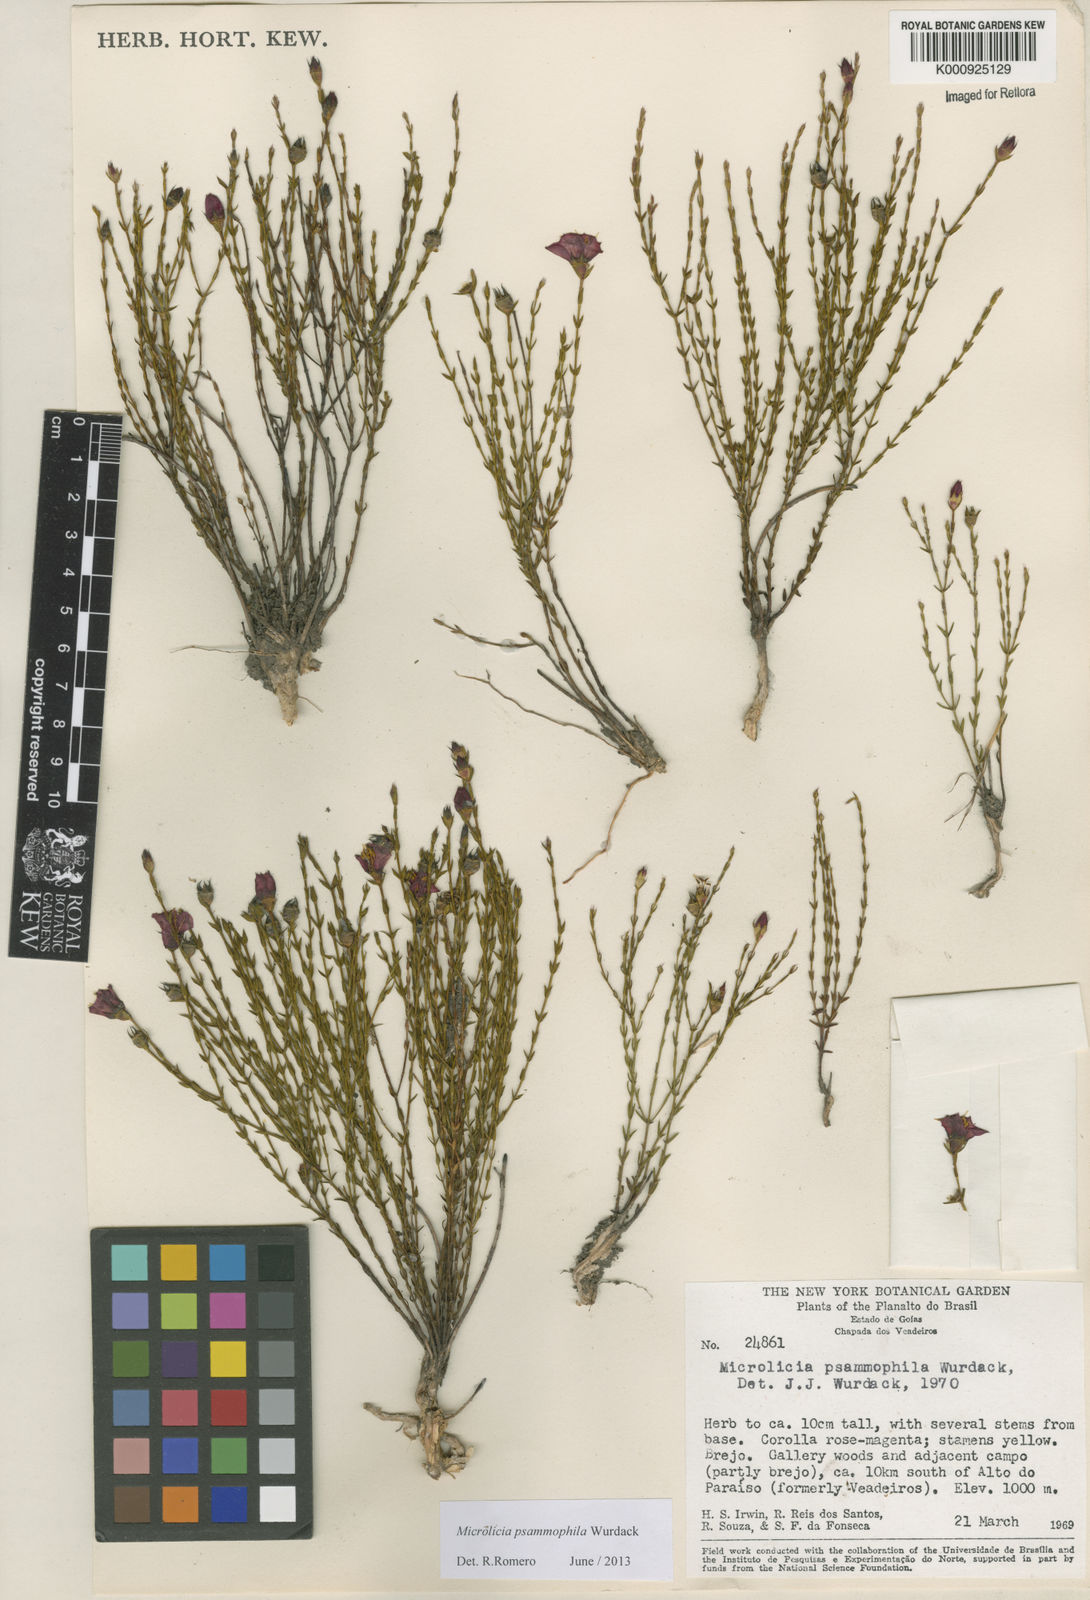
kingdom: Plantae
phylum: Tracheophyta
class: Magnoliopsida
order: Myrtales
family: Melastomataceae
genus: Microlicia
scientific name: Microlicia psammophila
